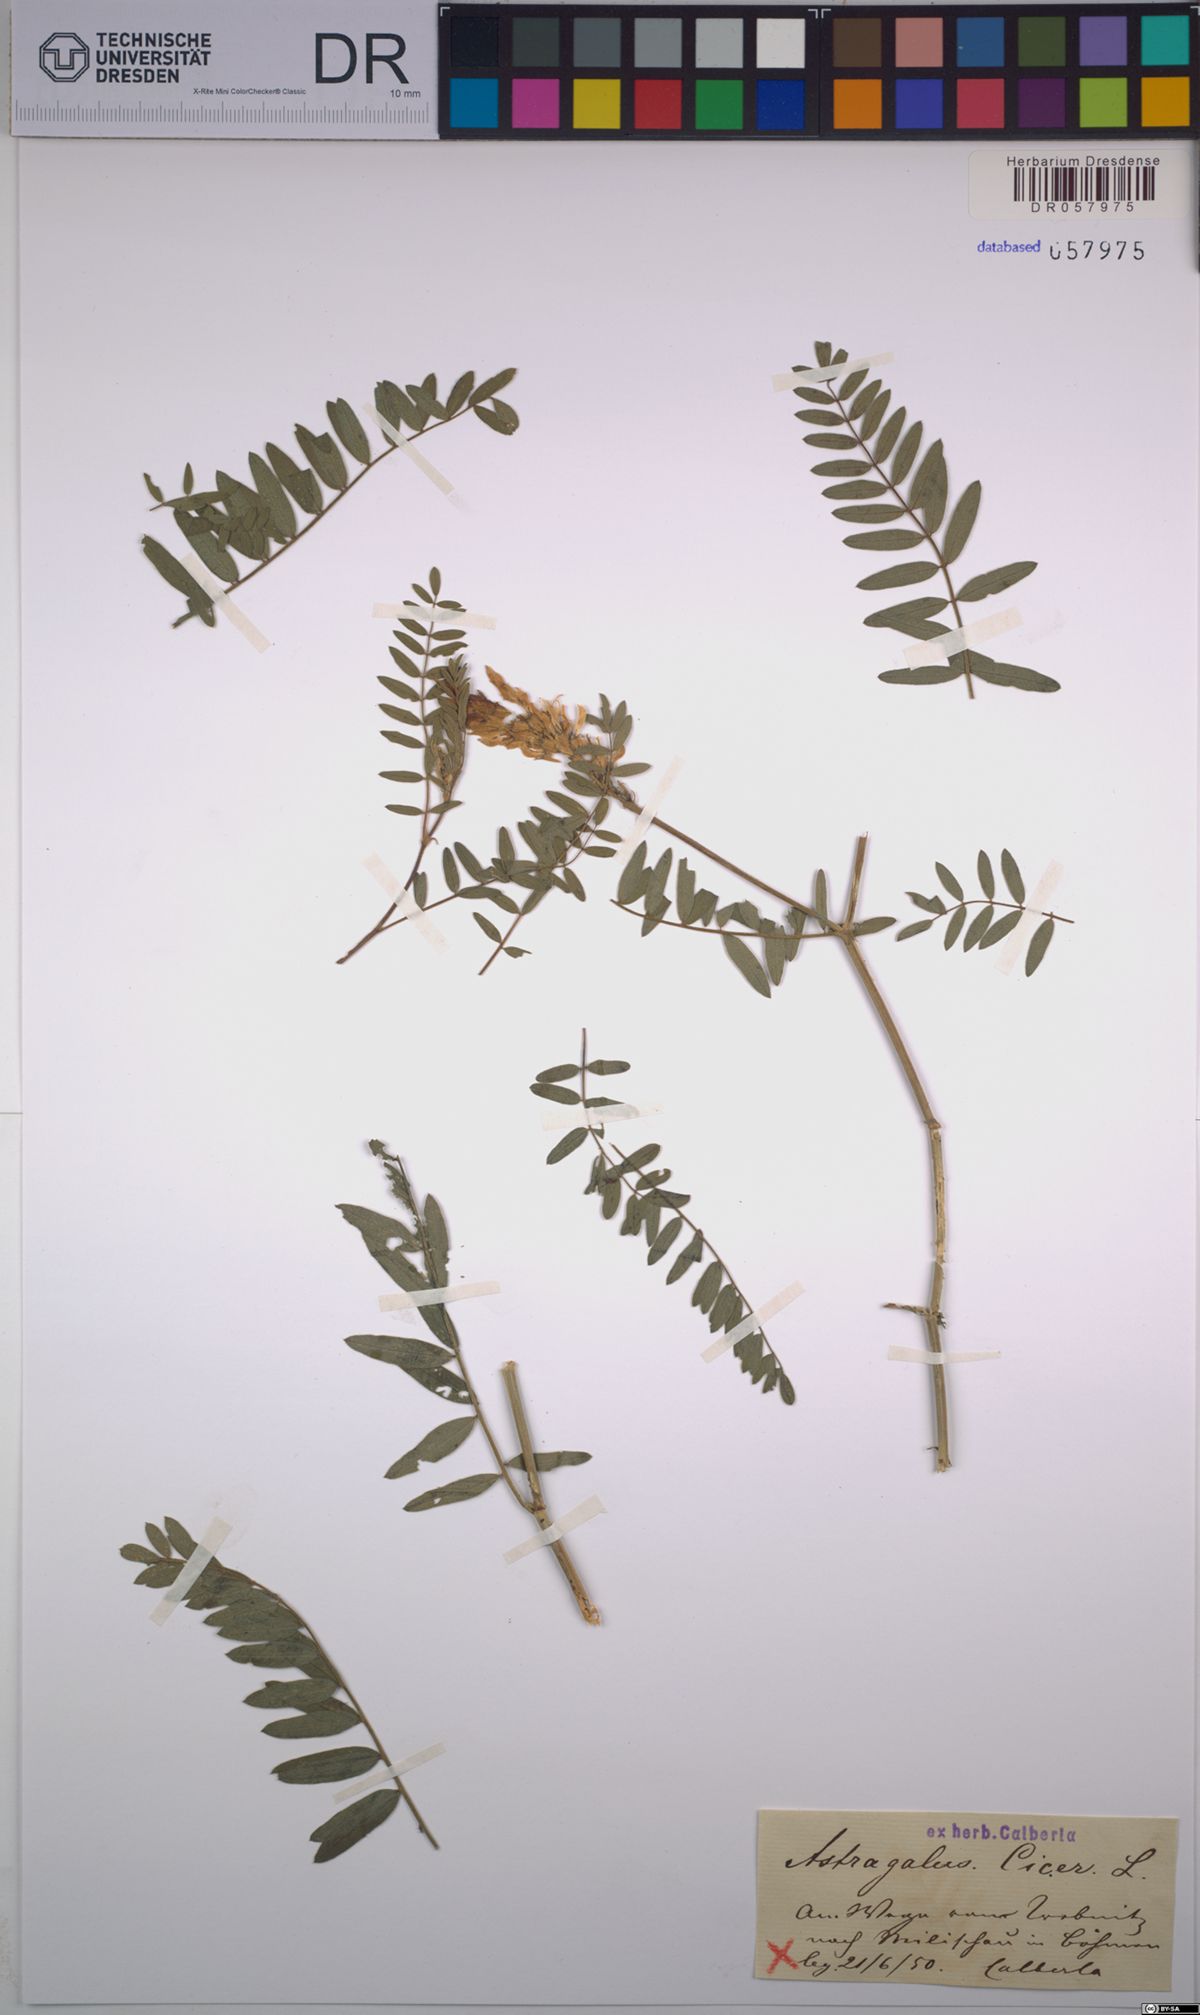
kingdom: Plantae
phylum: Tracheophyta
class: Magnoliopsida
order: Fabales
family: Fabaceae
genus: Astragalus
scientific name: Astragalus cicer
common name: Chick-pea milk-vetch
